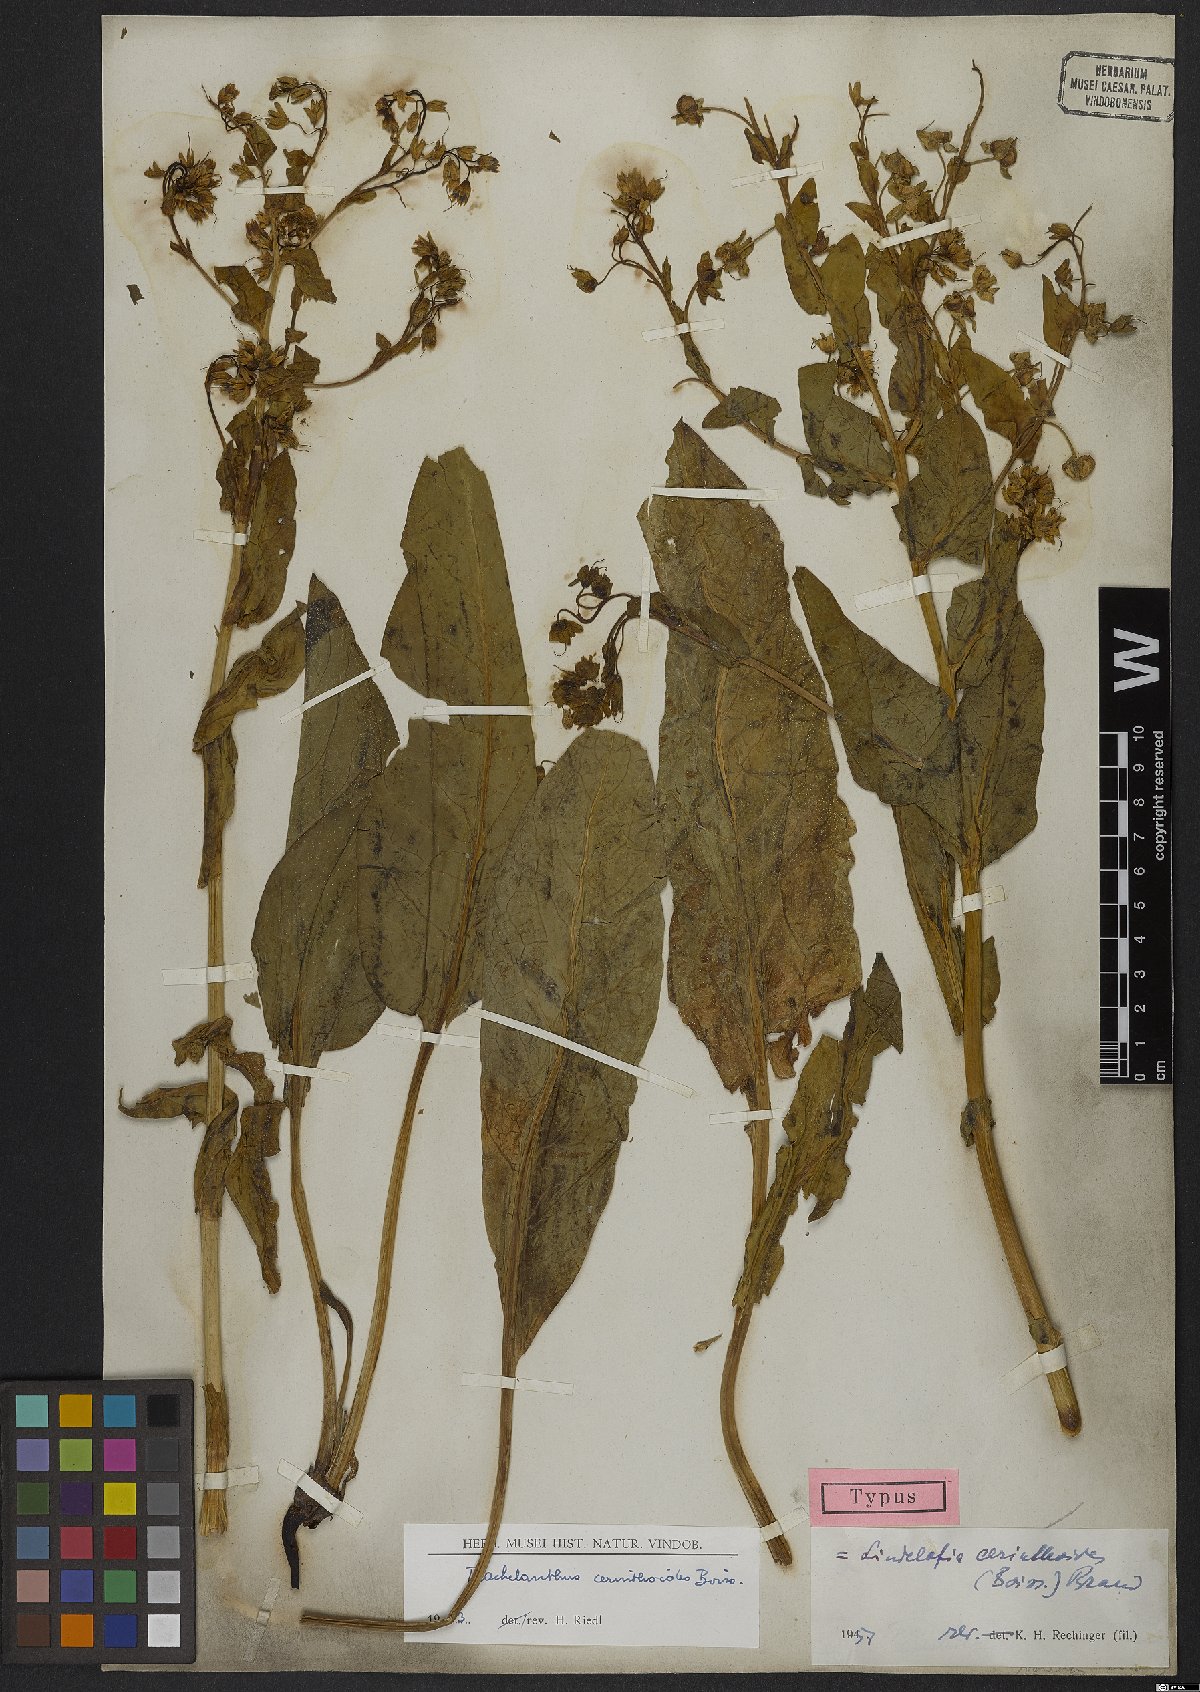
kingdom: Plantae
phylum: Tracheophyta
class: Magnoliopsida
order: Boraginales
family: Boraginaceae
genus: Lindelofia
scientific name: Lindelofia cerinthoides
